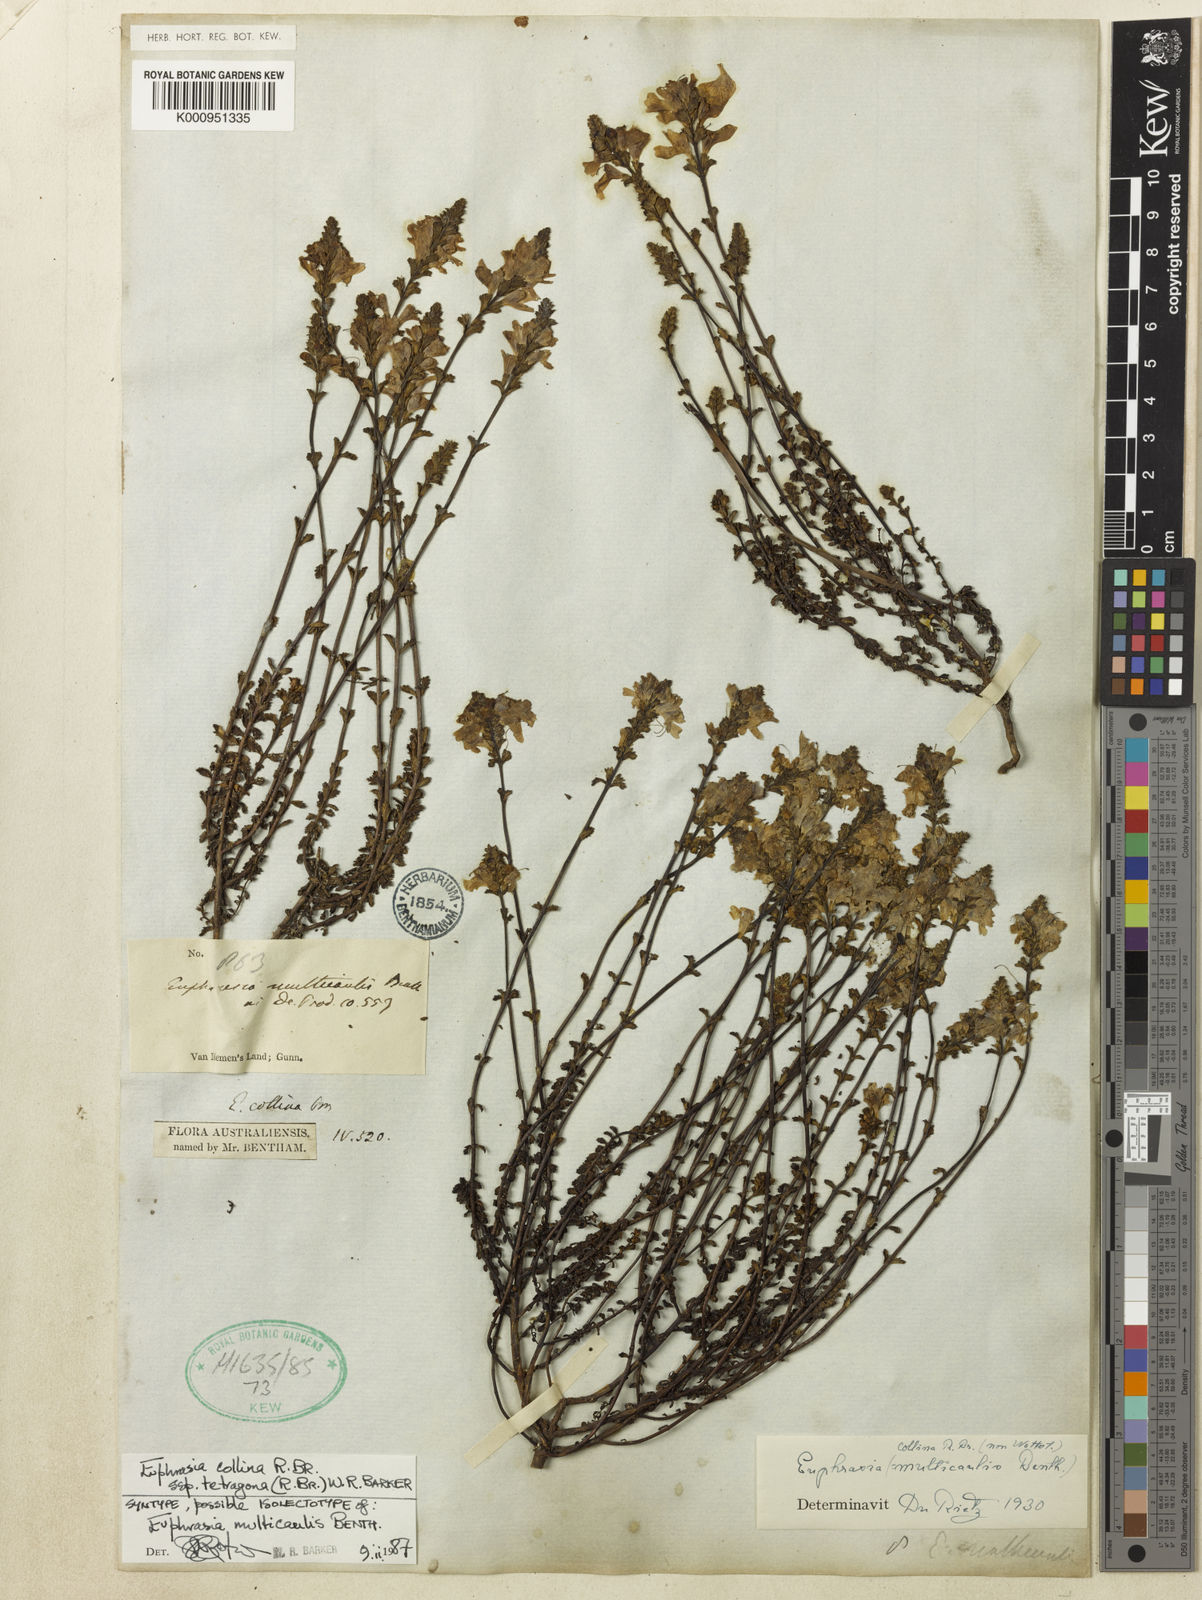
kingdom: Plantae
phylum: Tracheophyta
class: Magnoliopsida
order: Lamiales
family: Orobanchaceae
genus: Euphrasia
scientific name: Euphrasia collina
